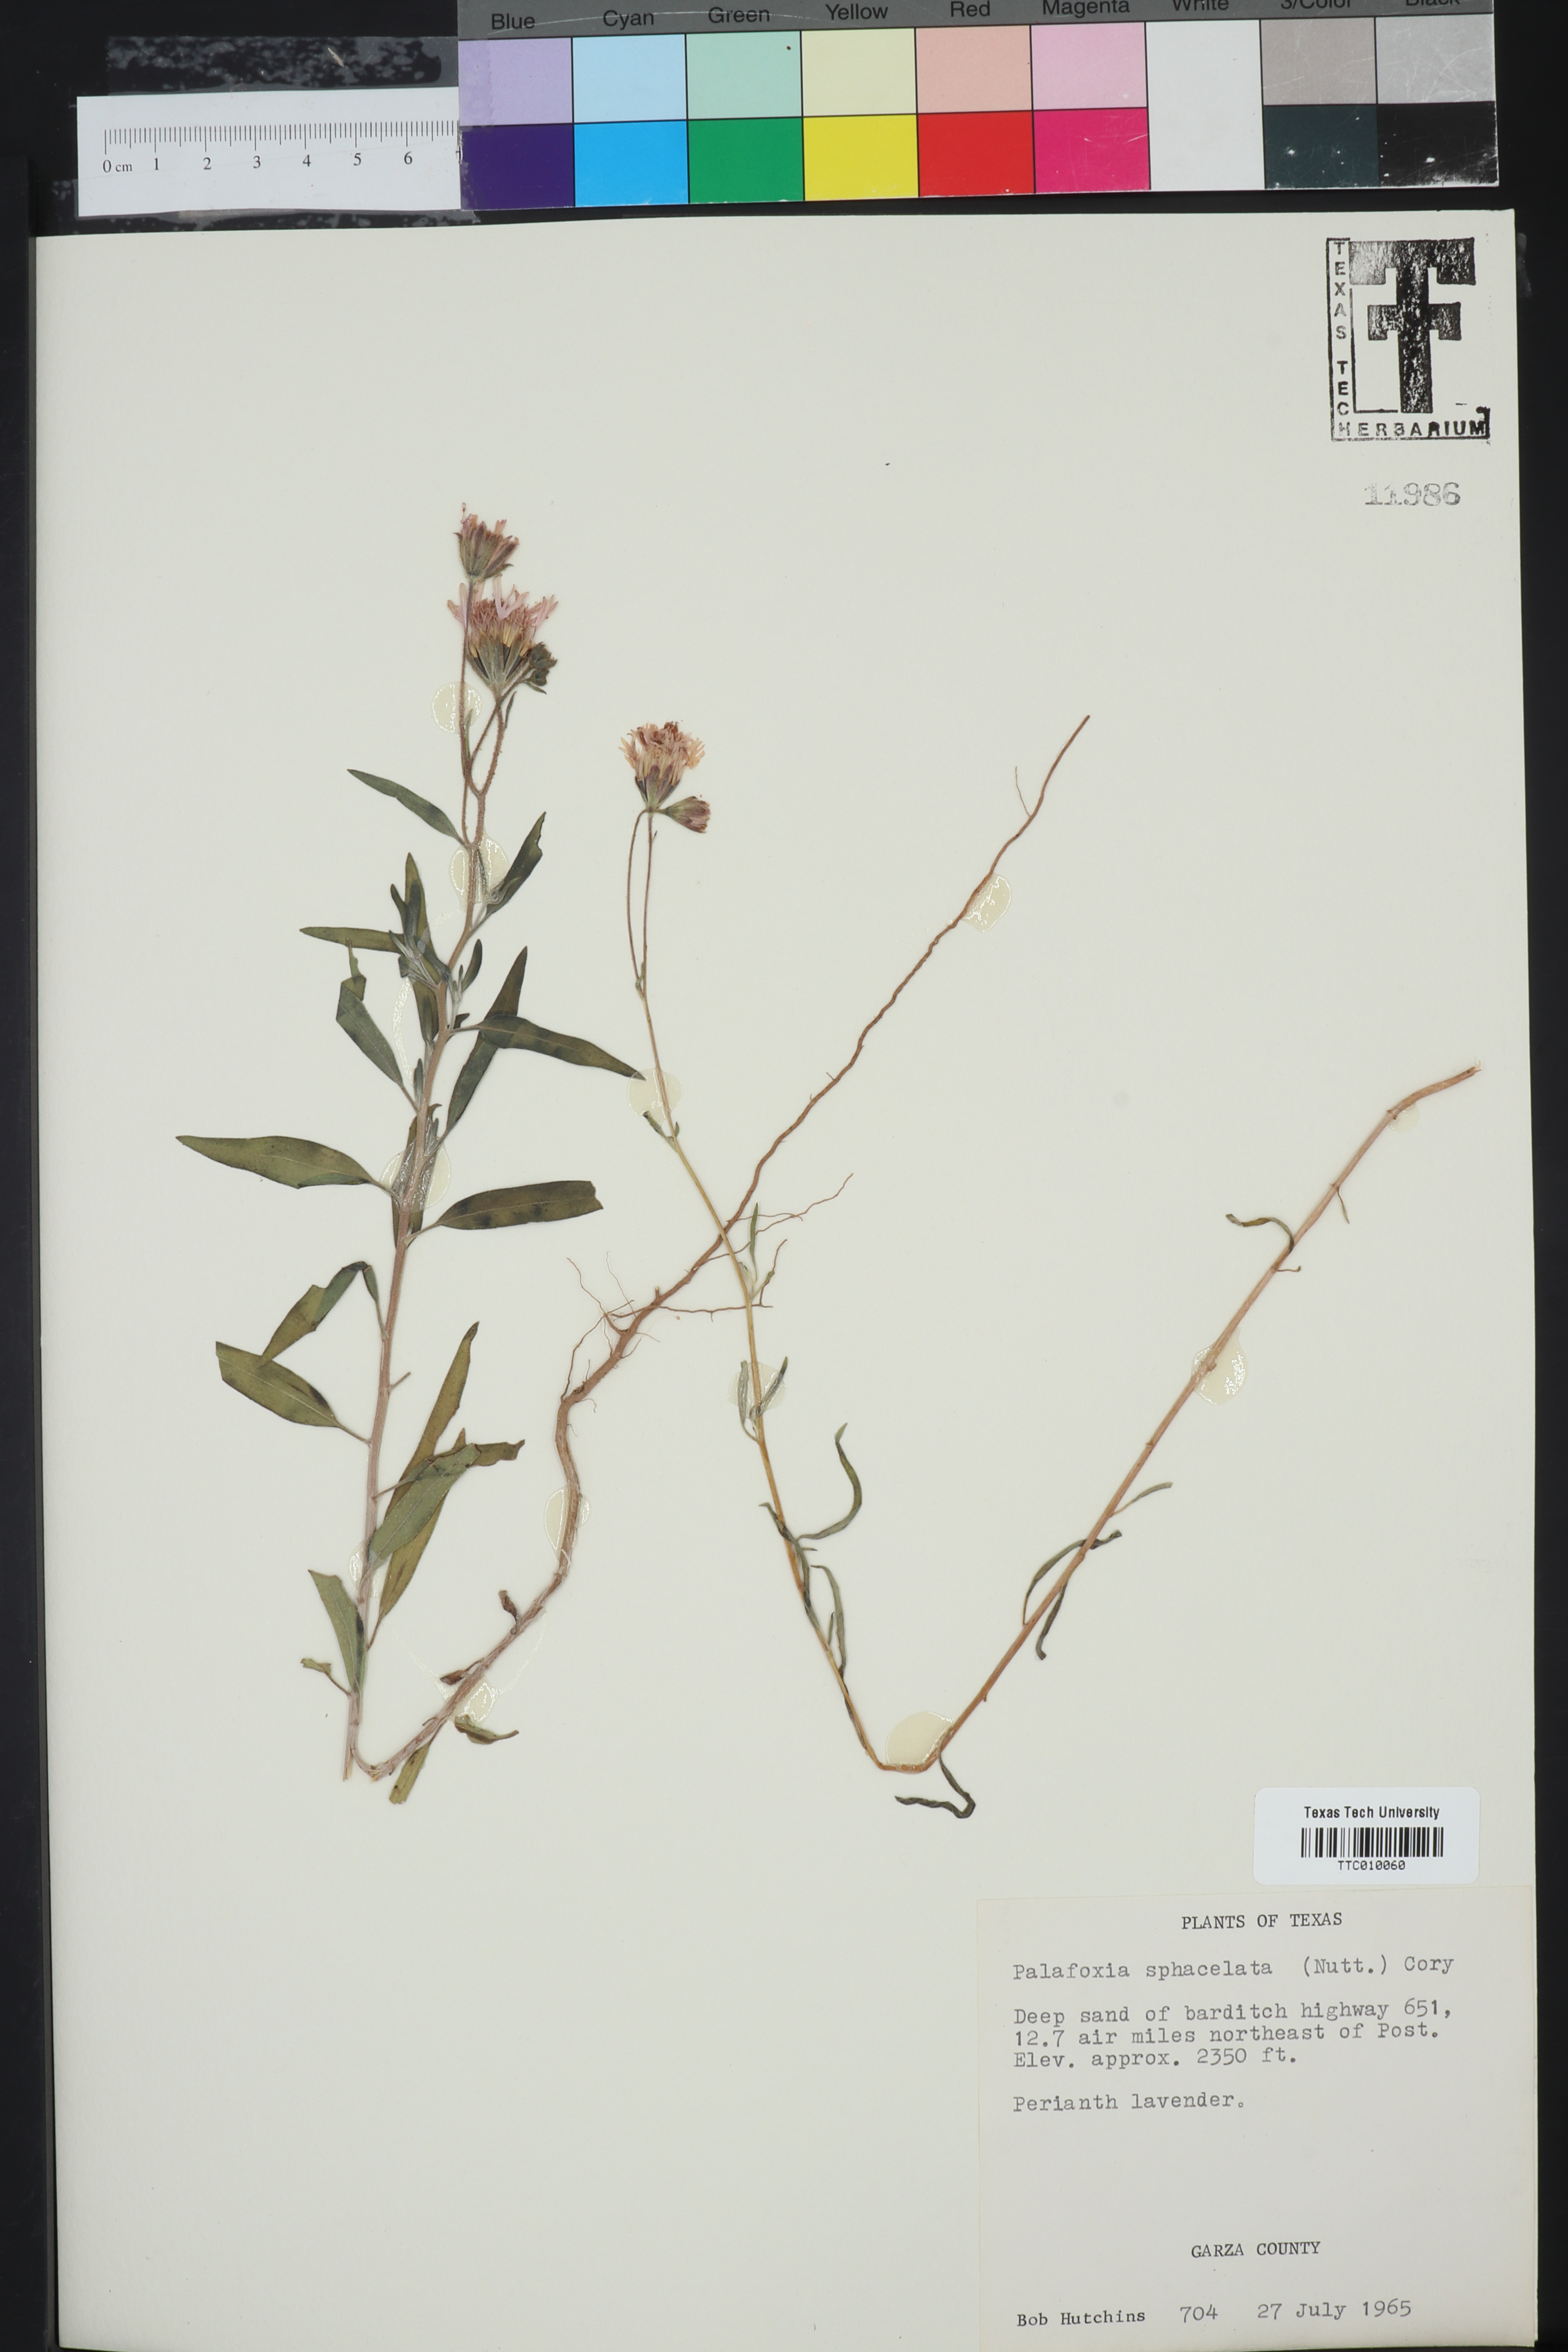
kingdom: Plantae
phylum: Tracheophyta
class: Magnoliopsida
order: Asterales
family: Asteraceae
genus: Palafoxia
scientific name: Palafoxia sphacelata
